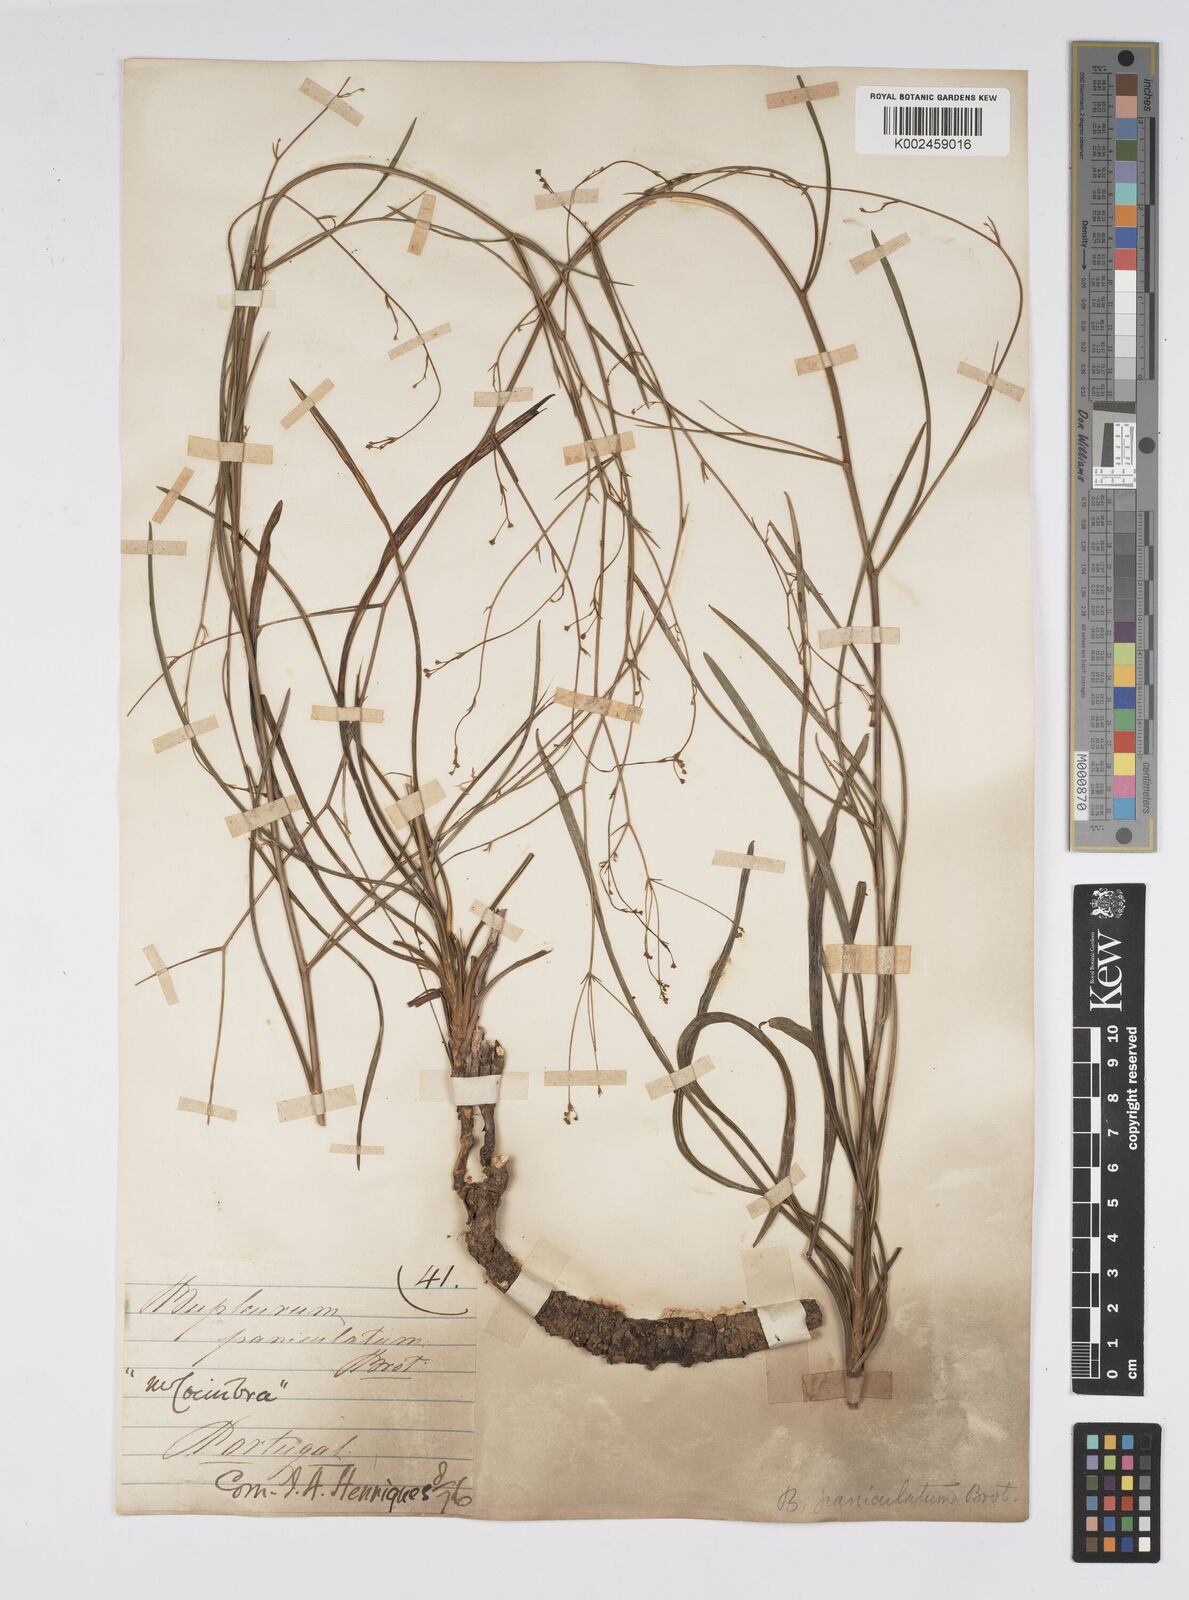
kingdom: Plantae
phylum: Tracheophyta
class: Magnoliopsida
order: Apiales
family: Apiaceae
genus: Bupleurum
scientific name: Bupleurum rigidum
